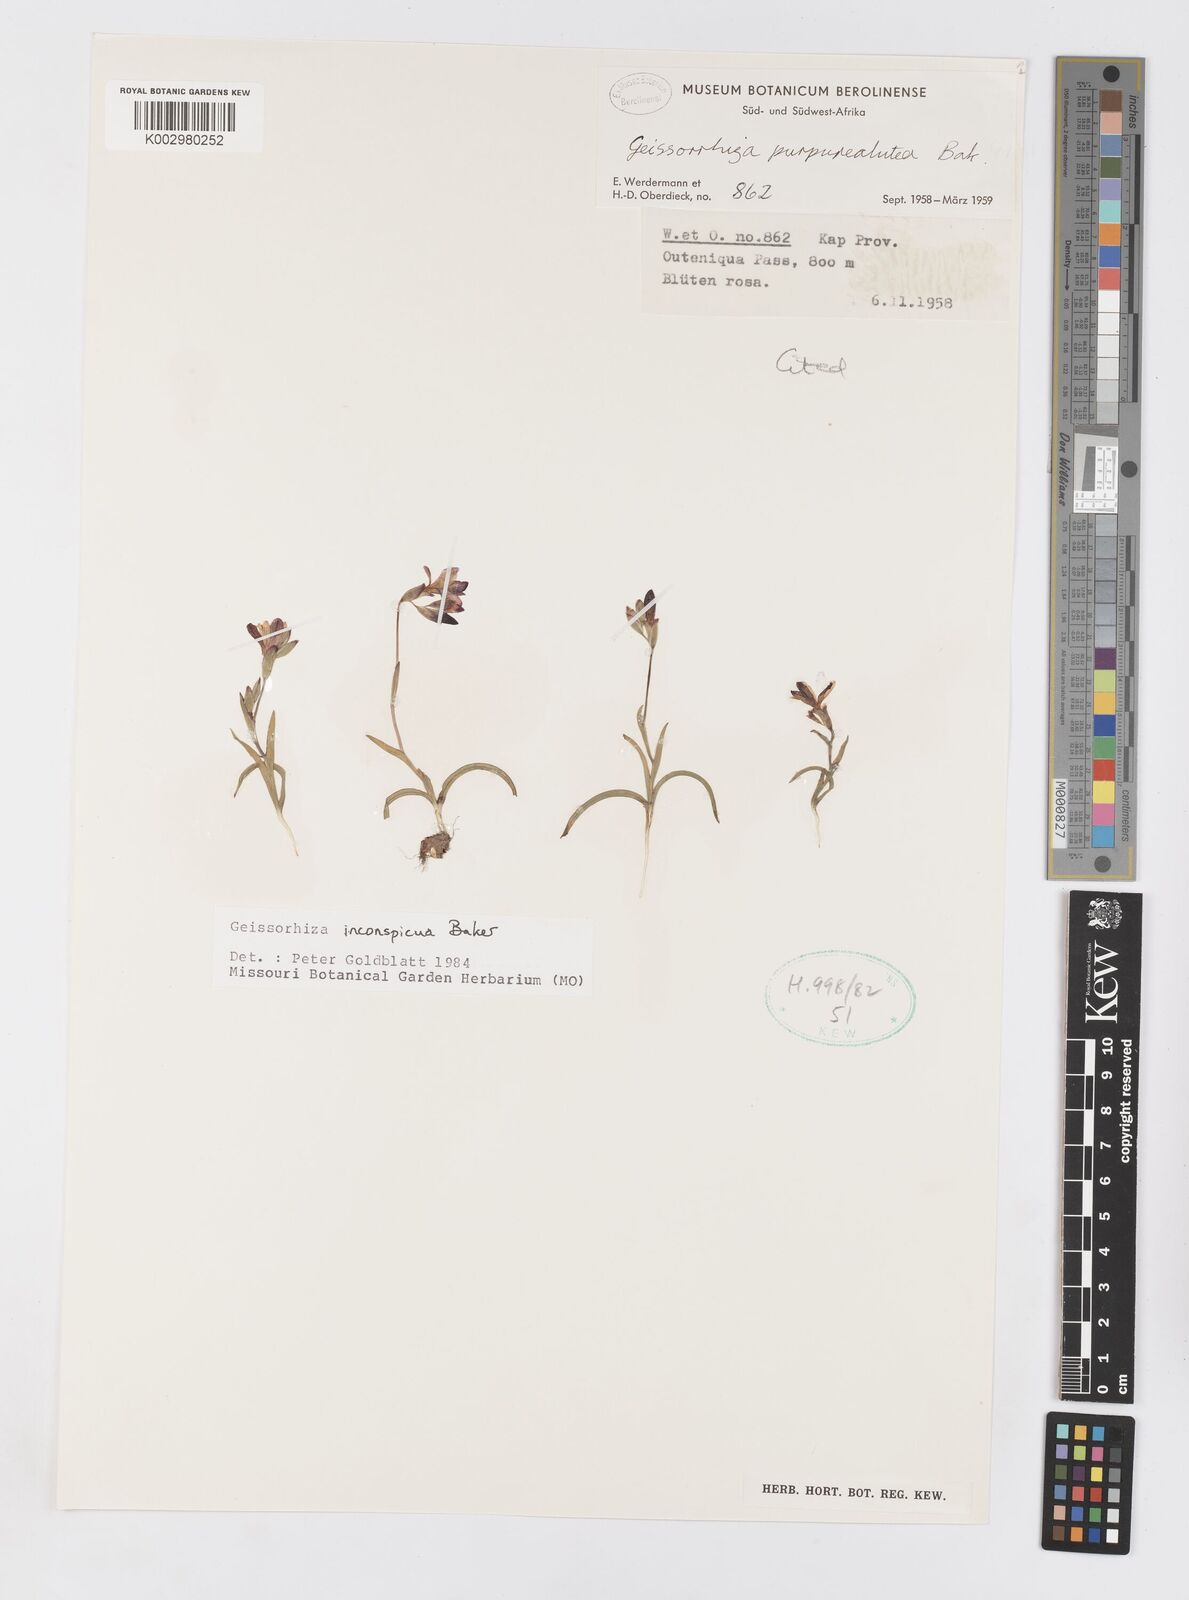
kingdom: Plantae
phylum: Tracheophyta
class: Liliopsida
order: Asparagales
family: Iridaceae
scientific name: Iridaceae
